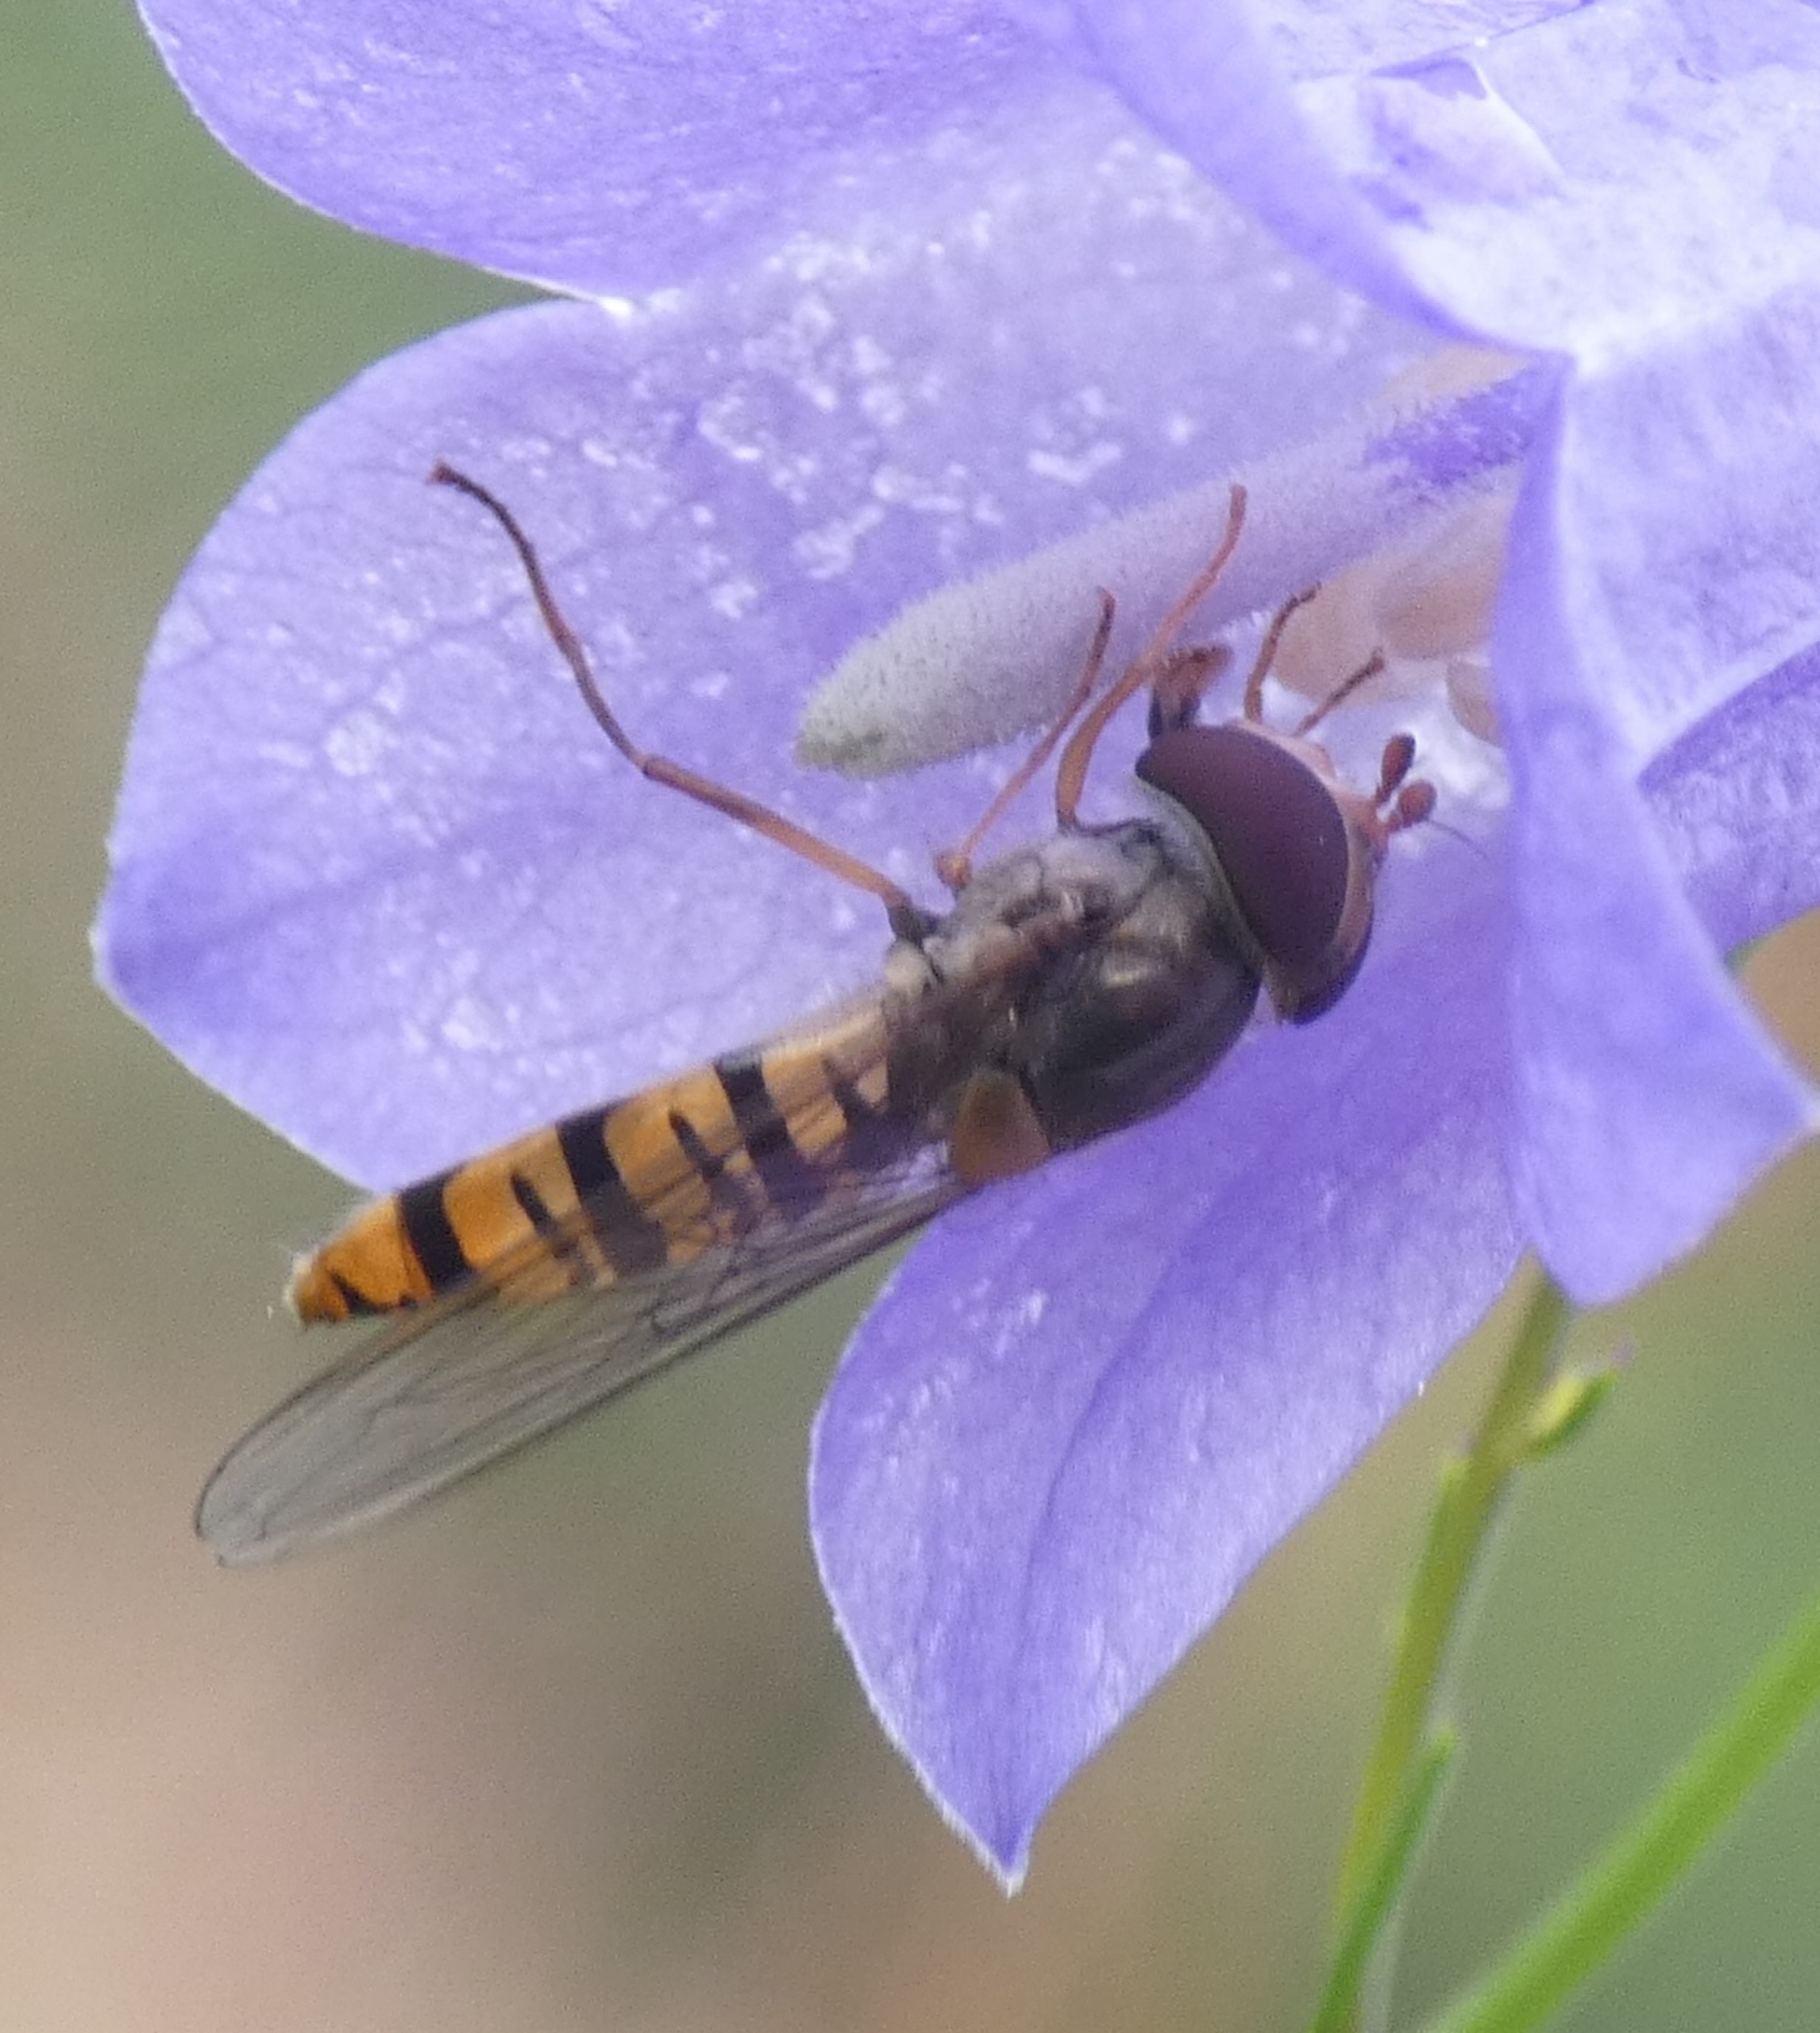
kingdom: Animalia
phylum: Arthropoda
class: Insecta
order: Diptera
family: Syrphidae
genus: Episyrphus
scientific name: Episyrphus balteatus
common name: Dobbeltbåndet svirreflue
